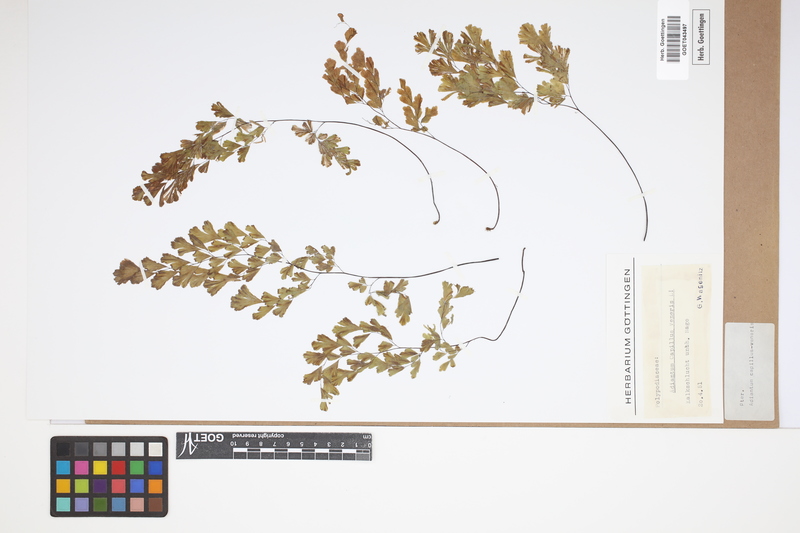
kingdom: Plantae
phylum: Tracheophyta
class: Polypodiopsida
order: Polypodiales
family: Pteridaceae
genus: Adiantum
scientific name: Adiantum capillus-veneris
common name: Maidenhair fern
